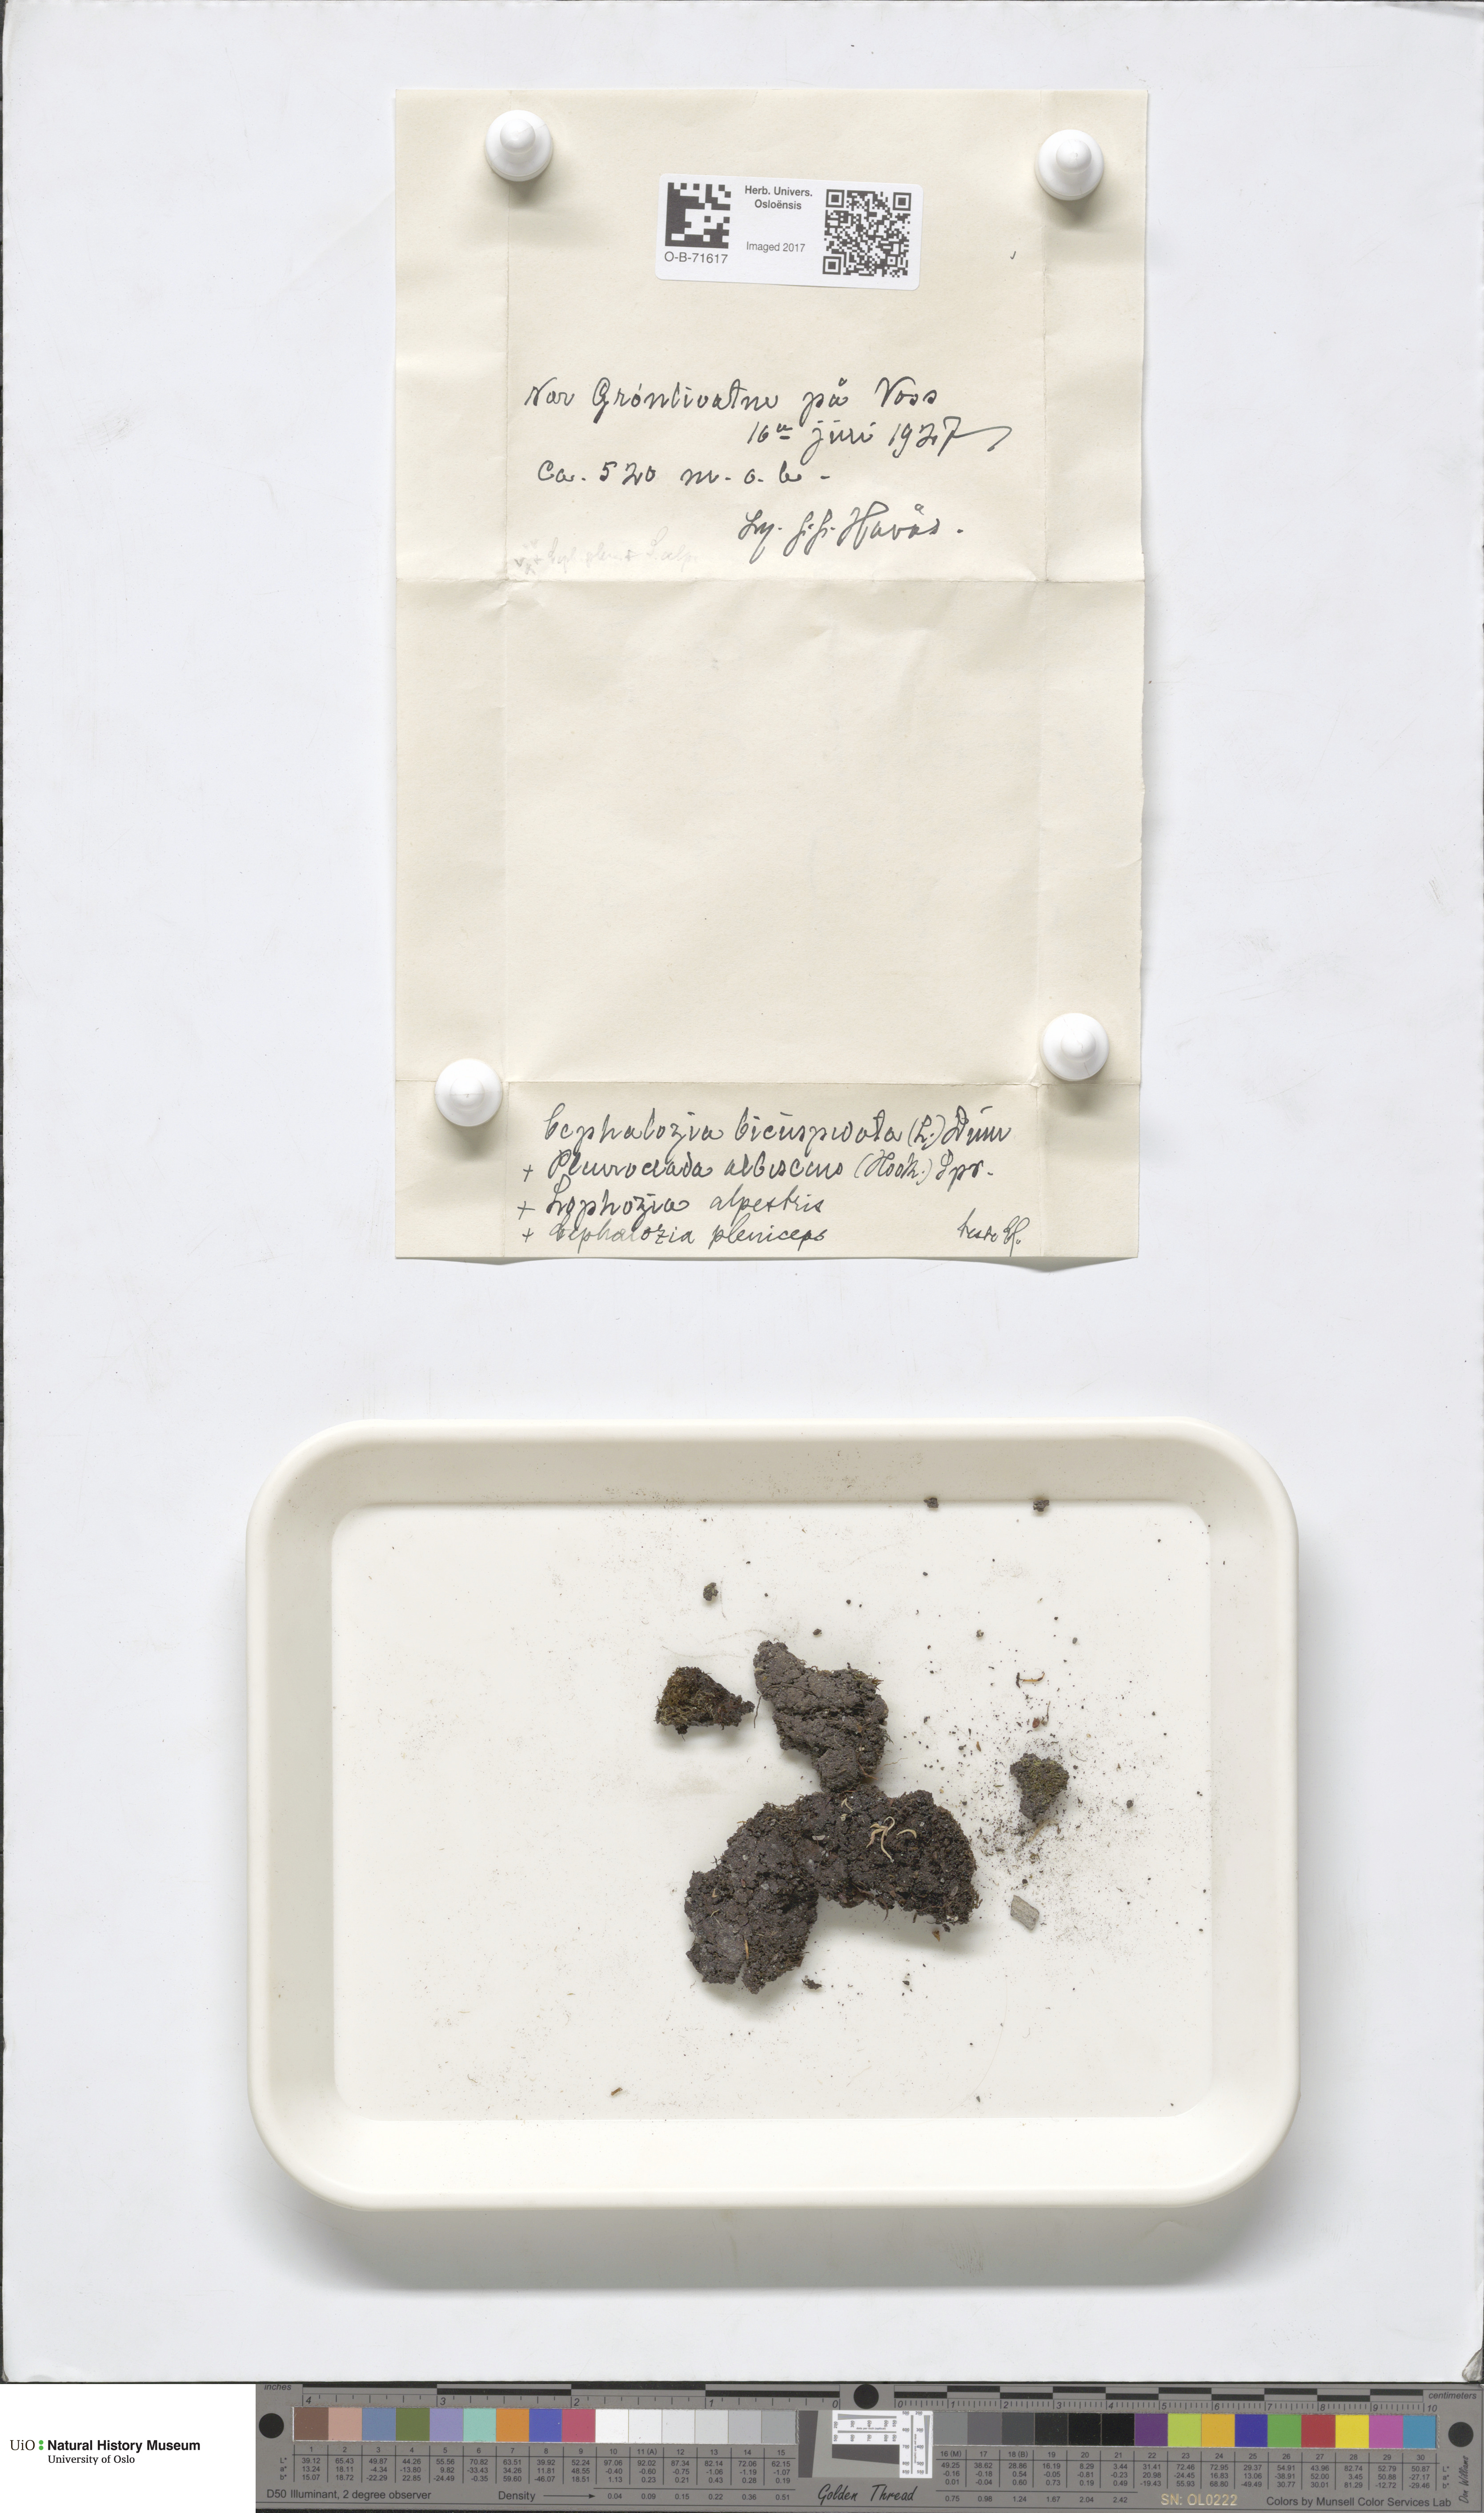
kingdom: Plantae
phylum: Marchantiophyta
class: Jungermanniopsida
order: Jungermanniales
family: Cephaloziaceae
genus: Cephalozia
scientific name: Cephalozia bicuspidata
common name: Two-horned pincerwort
